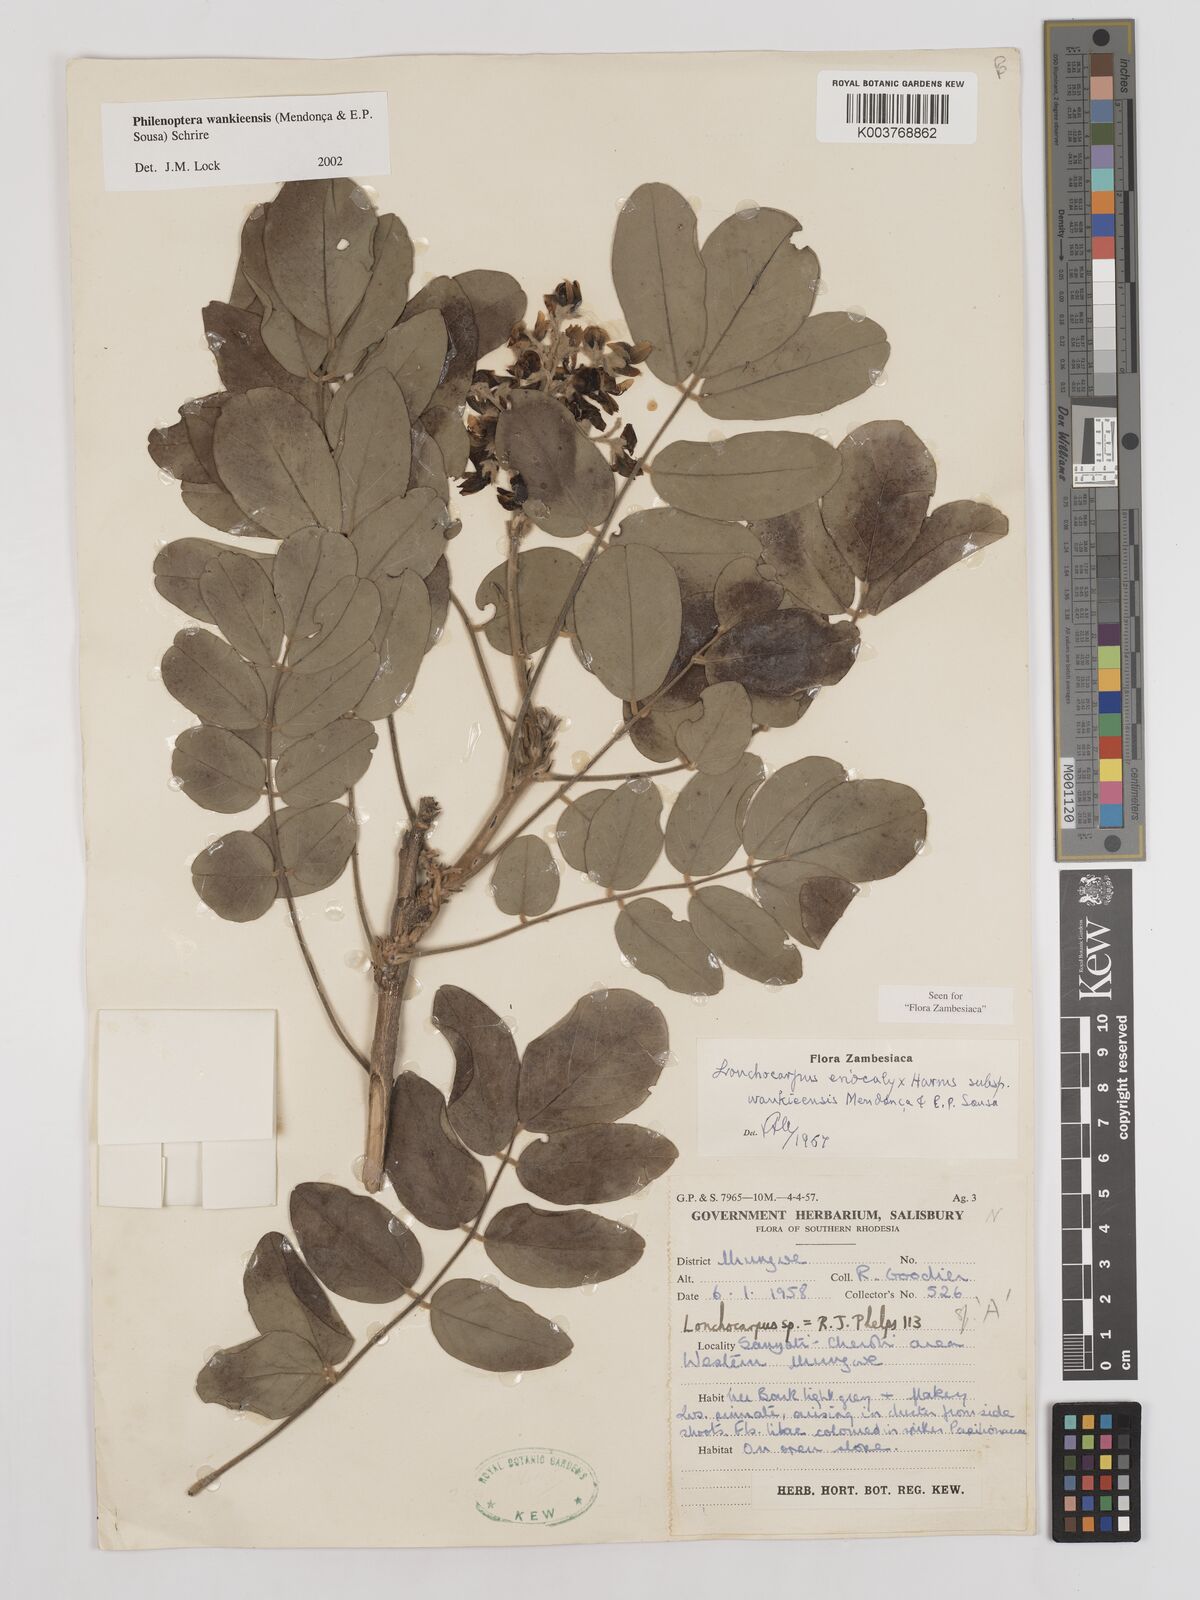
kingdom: Plantae
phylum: Tracheophyta
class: Magnoliopsida
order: Fabales
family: Fabaceae
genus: Philenoptera
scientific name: Philenoptera wankieensis
